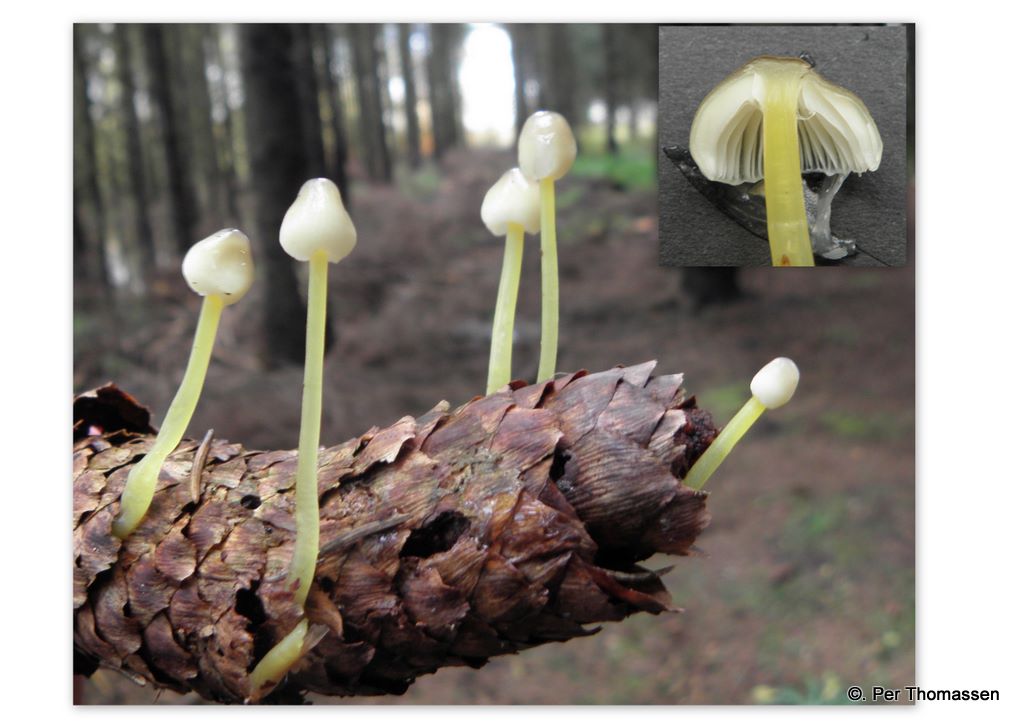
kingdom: Fungi
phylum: Basidiomycota
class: Agaricomycetes
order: Agaricales
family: Mycenaceae
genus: Mycena
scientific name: Mycena epipterygia
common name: gulstokket huesvamp
